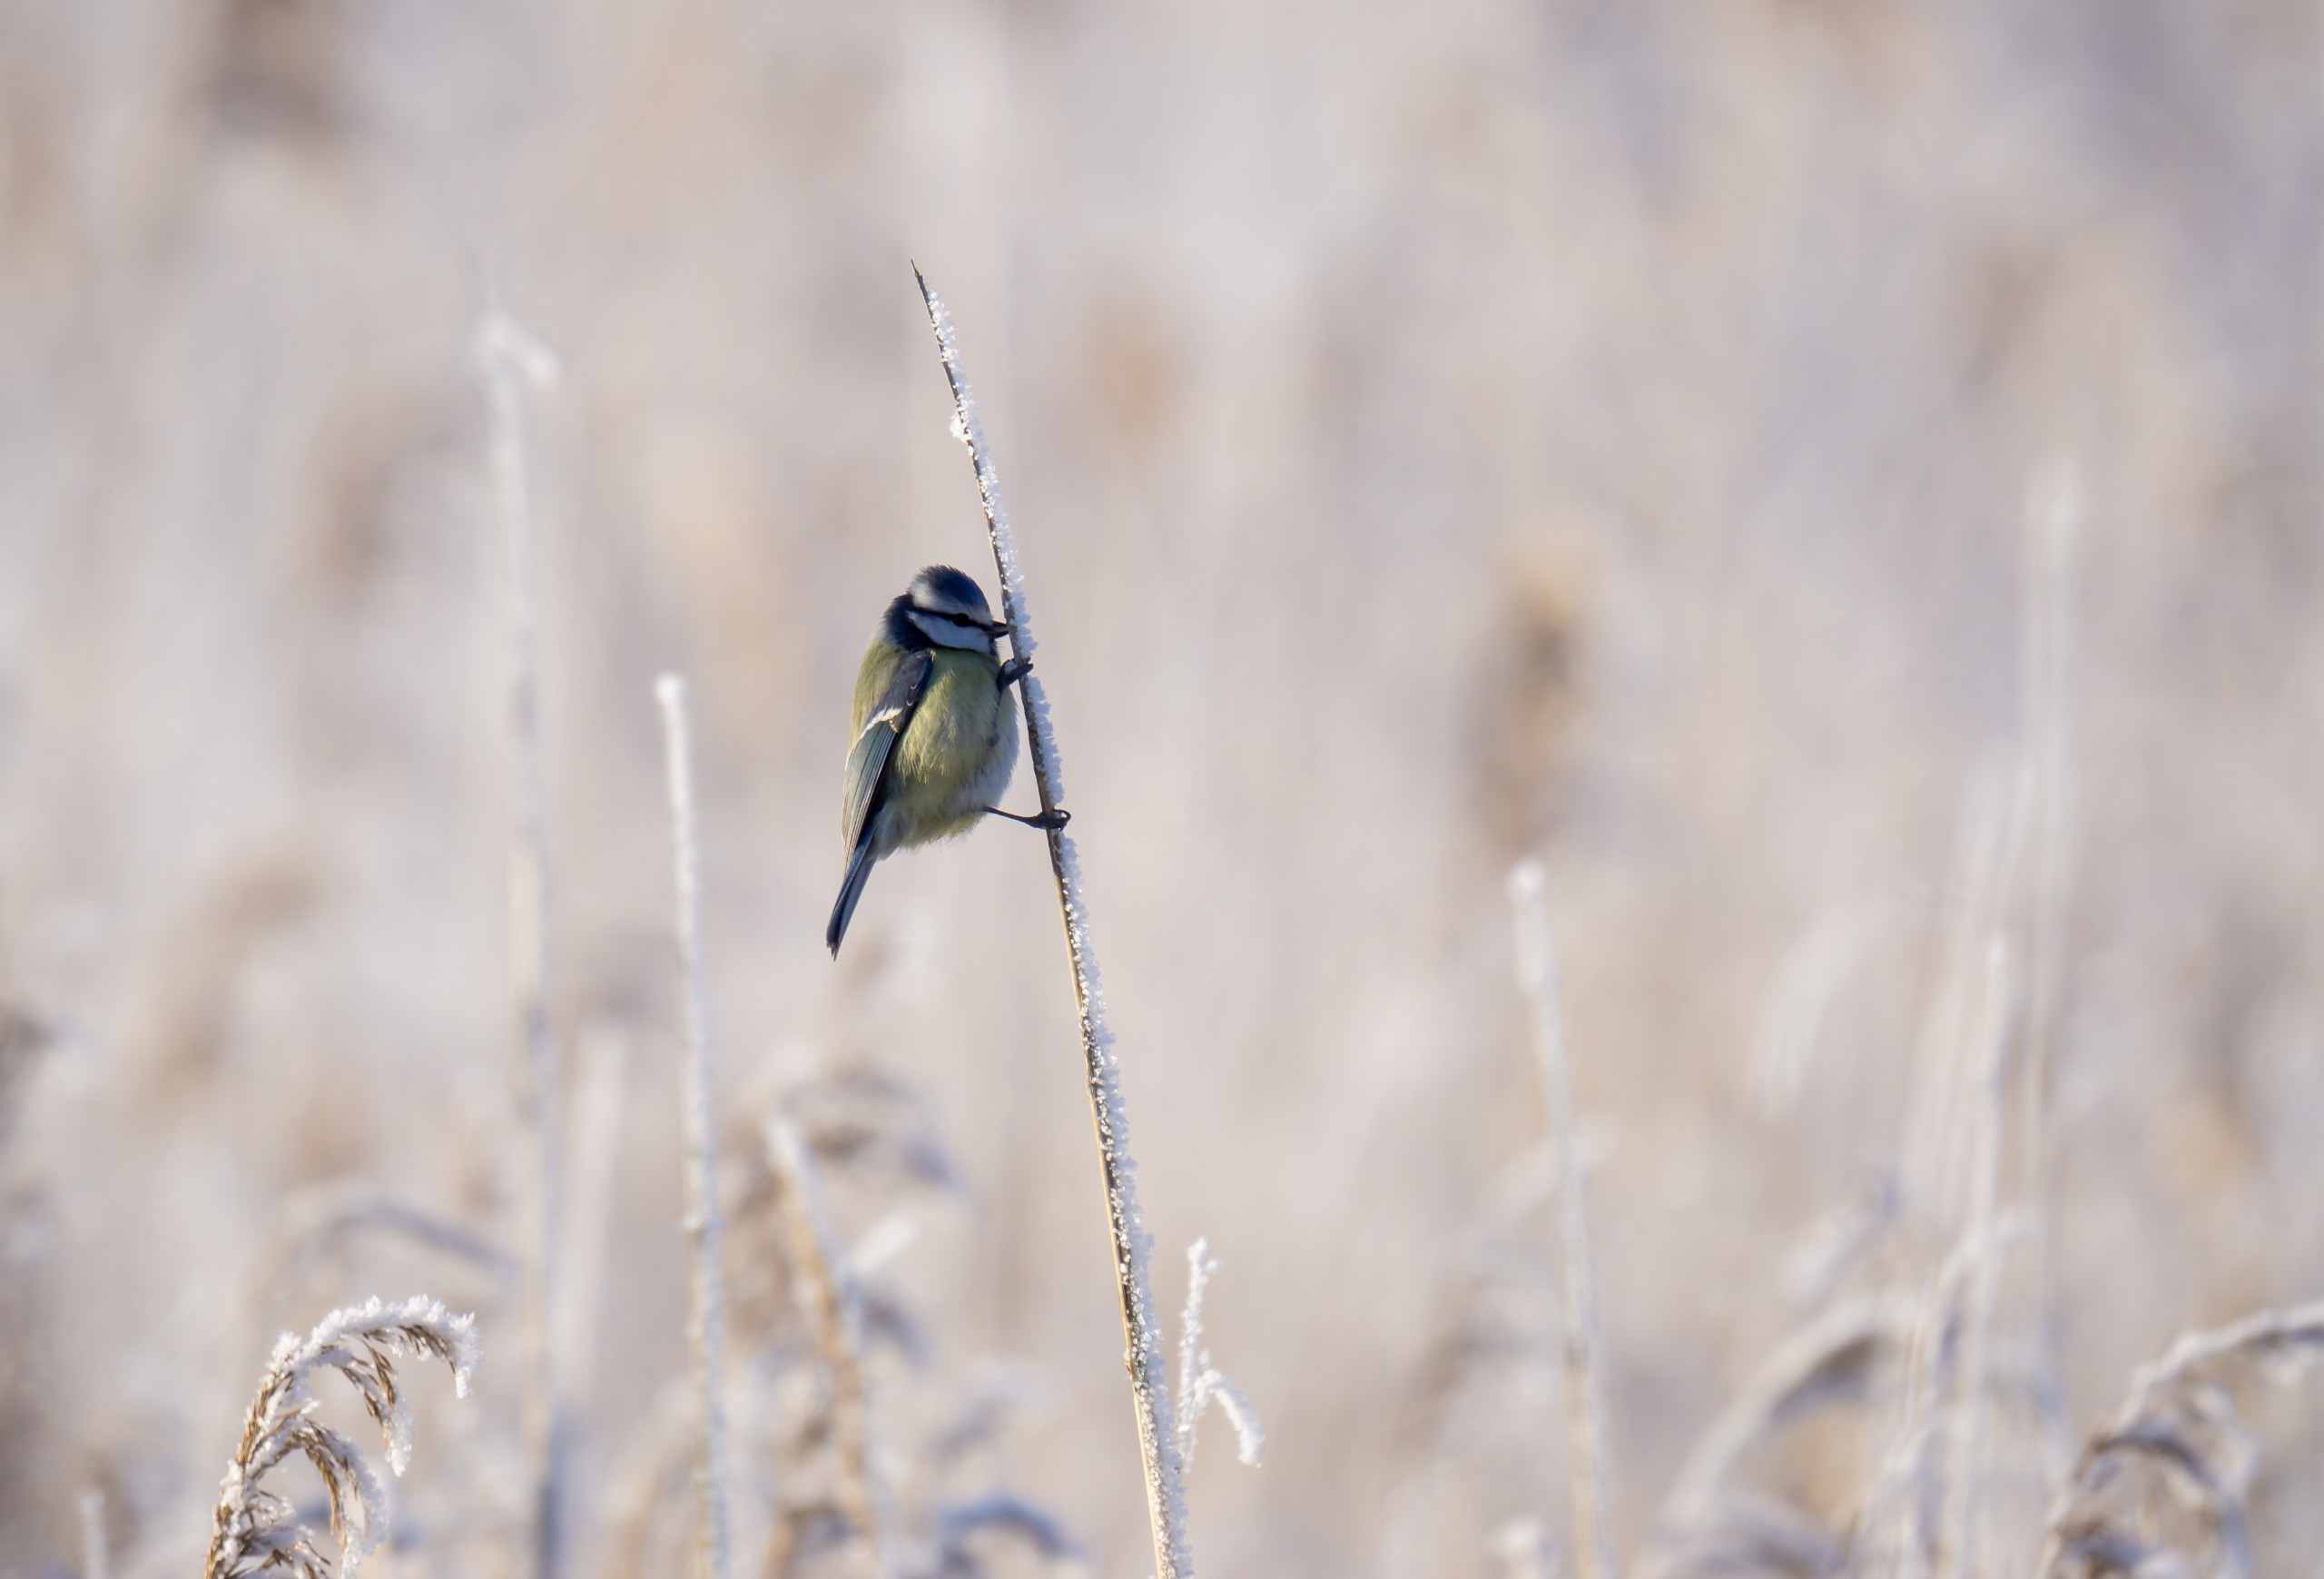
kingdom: Animalia
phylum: Chordata
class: Aves
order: Passeriformes
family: Paridae
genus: Cyanistes
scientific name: Cyanistes caeruleus
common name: Blåmejse
